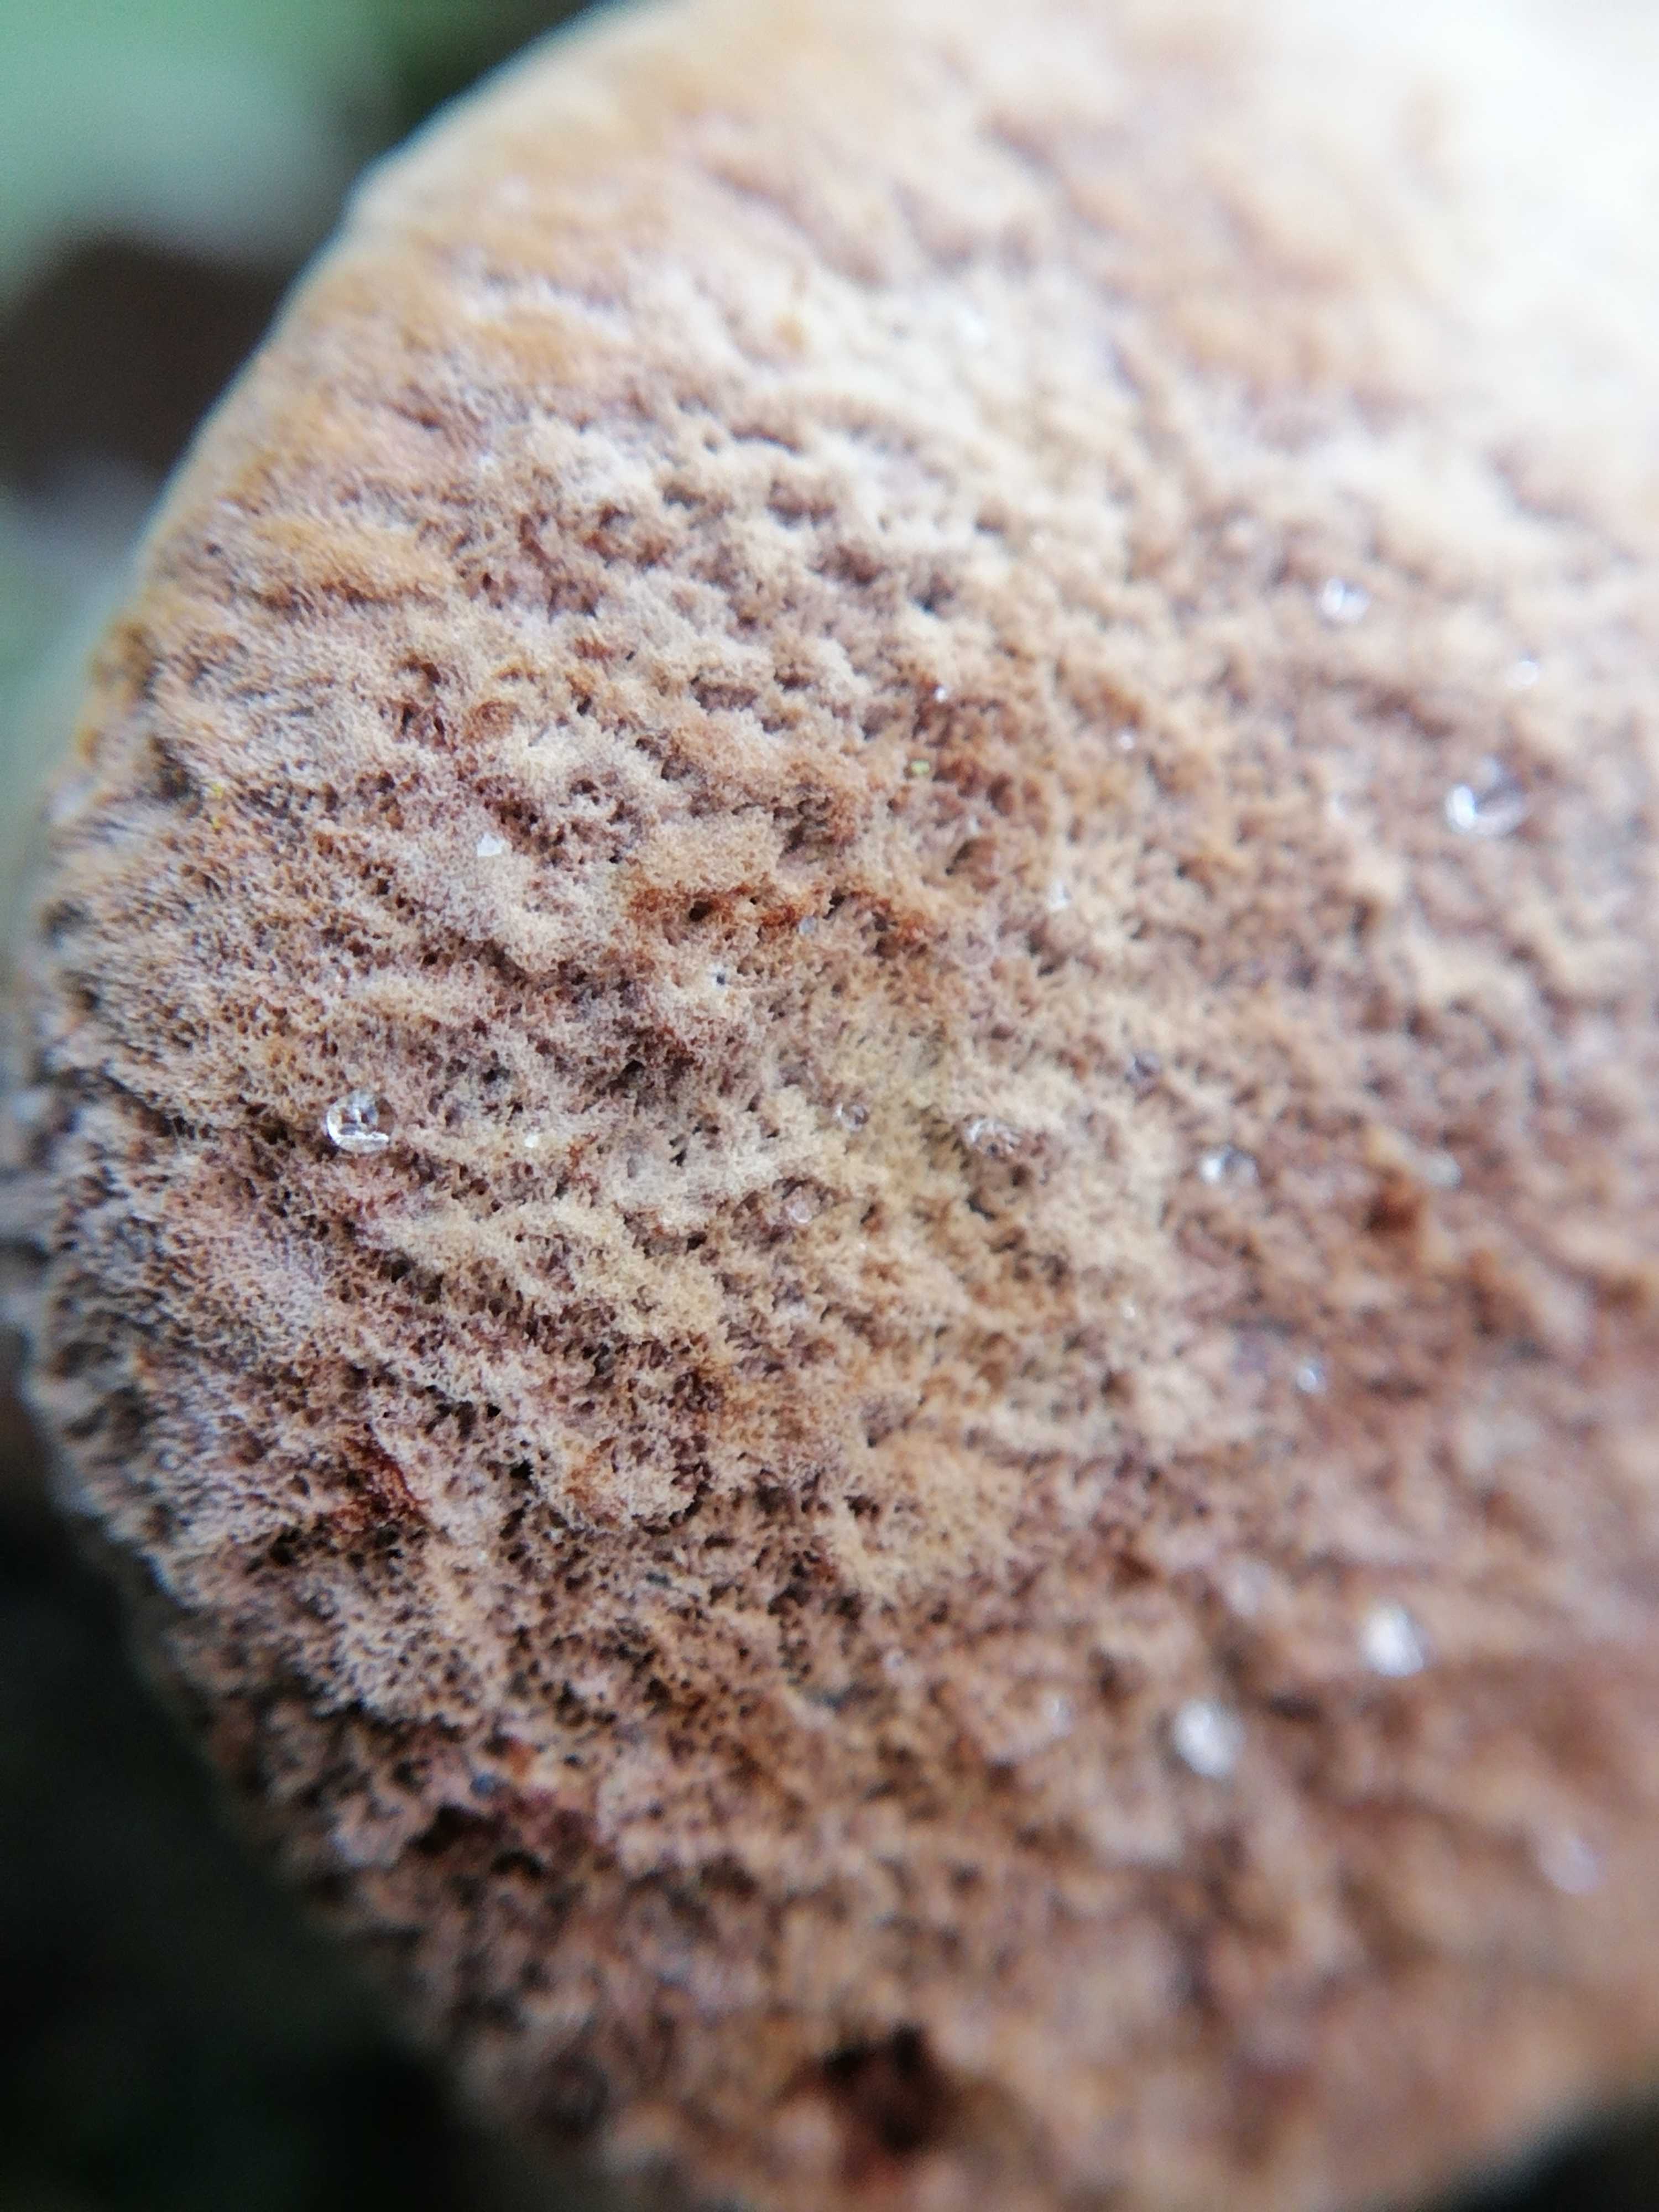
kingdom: Fungi
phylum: Basidiomycota
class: Agaricomycetes
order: Hymenochaetales
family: Hymenochaetaceae
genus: Phellinus
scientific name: Phellinus pomaceus
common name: blomme-ildporesvamp
